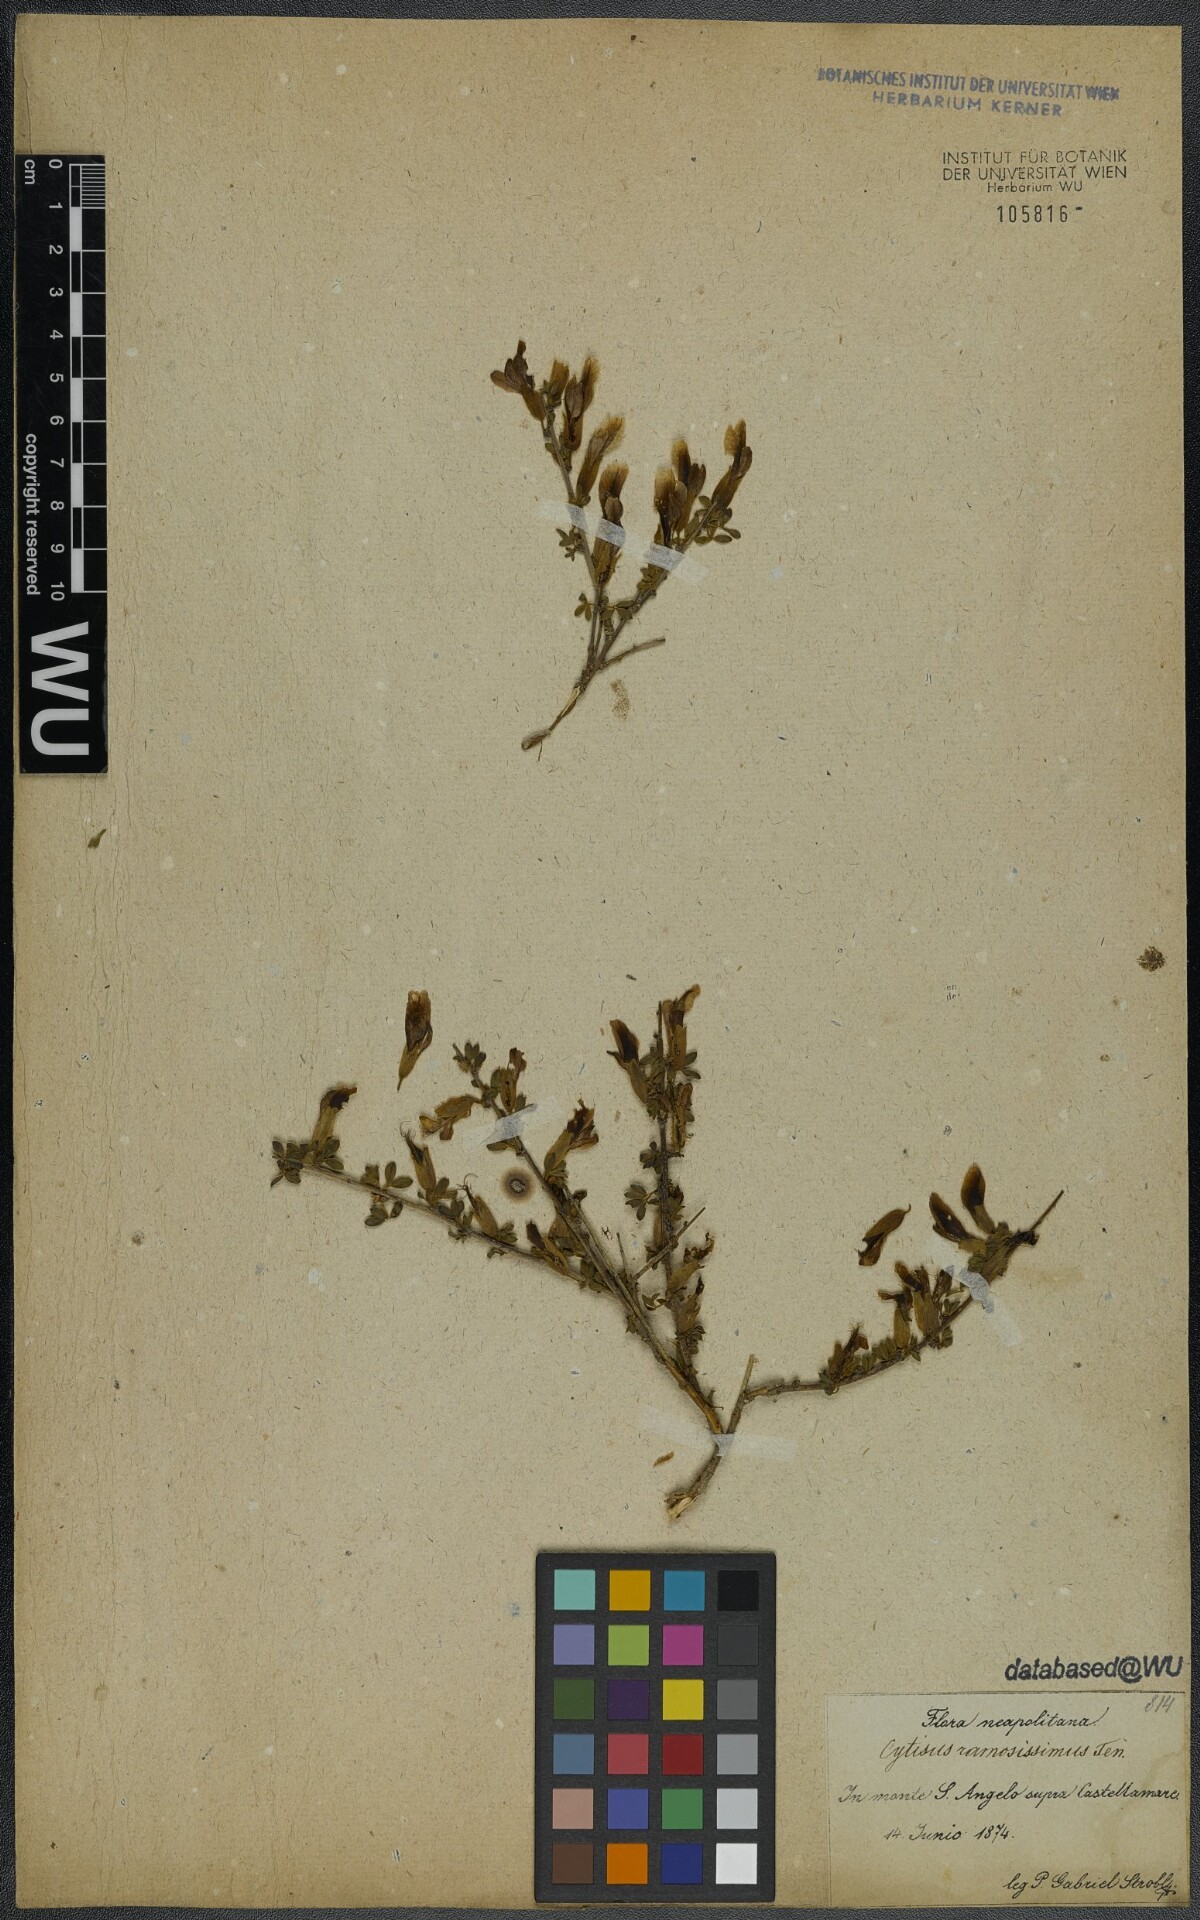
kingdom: Plantae
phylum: Tracheophyta
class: Magnoliopsida
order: Fabales
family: Fabaceae
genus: Chamaecytisus
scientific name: Chamaecytisus spinescens
